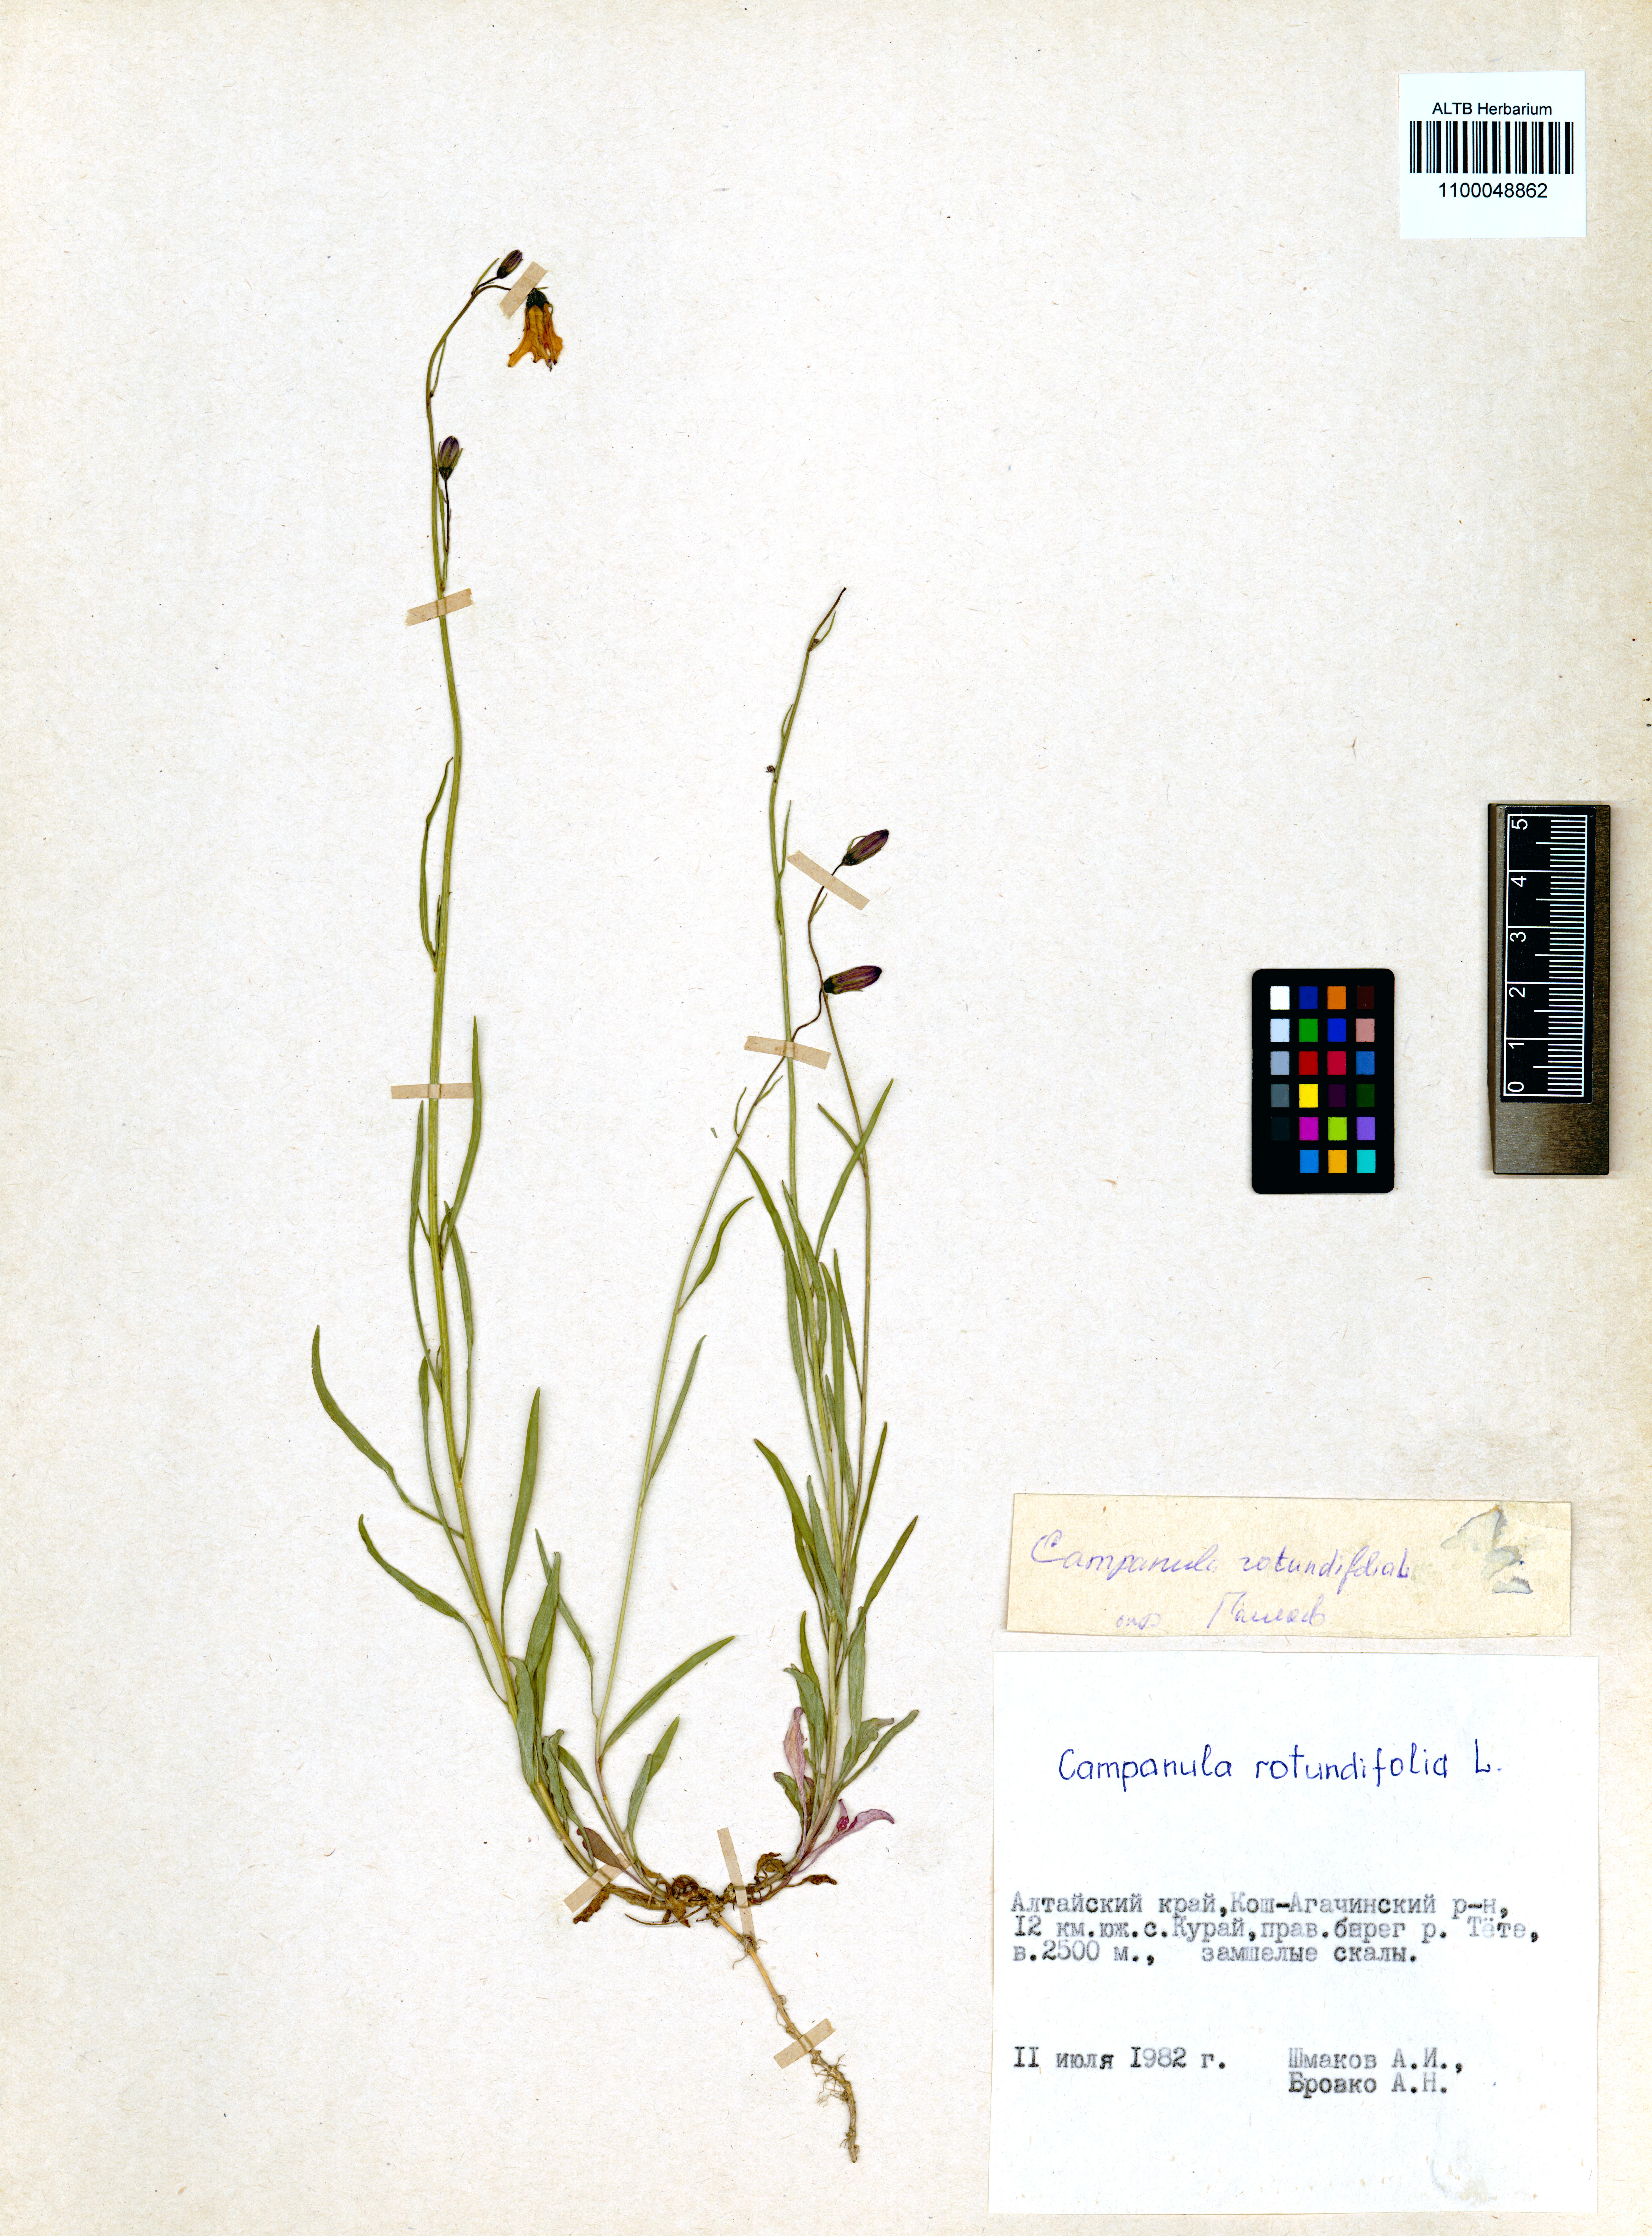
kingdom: Plantae
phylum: Tracheophyta
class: Magnoliopsida
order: Asterales
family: Campanulaceae
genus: Campanula
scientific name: Campanula rotundifolia
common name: Harebell
